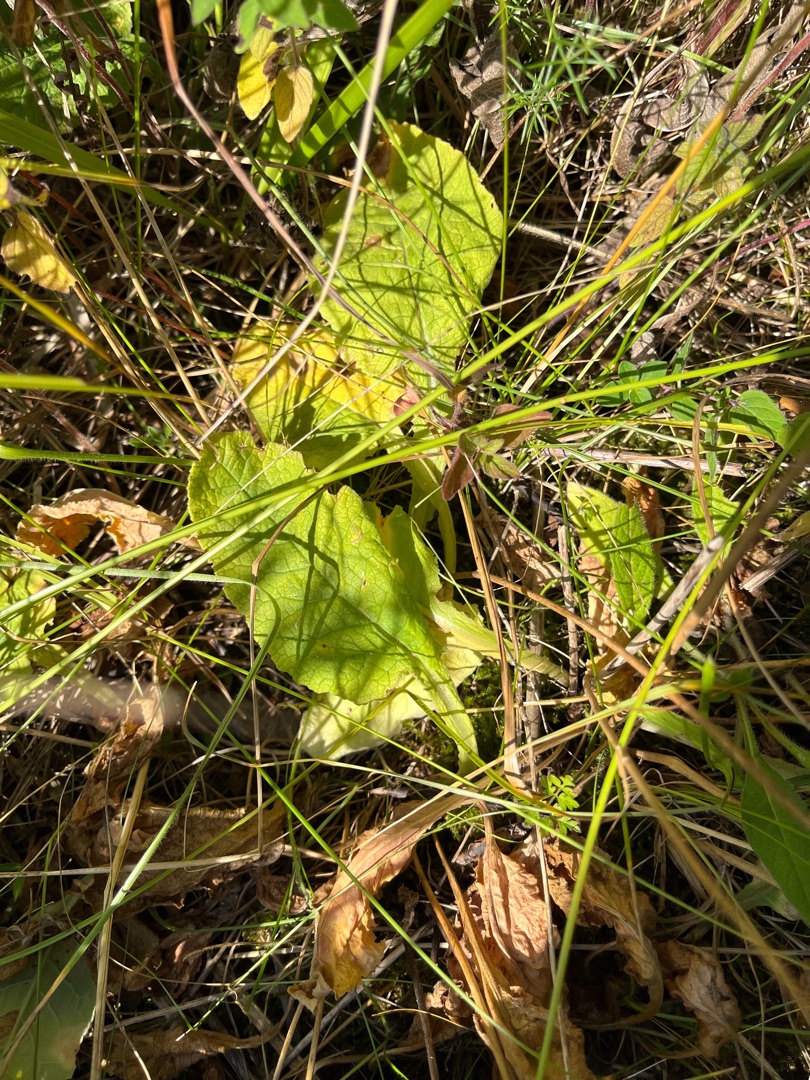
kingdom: Plantae
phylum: Tracheophyta
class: Magnoliopsida
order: Ericales
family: Primulaceae
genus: Primula
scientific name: Primula veris
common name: Hulkravet kodriver
